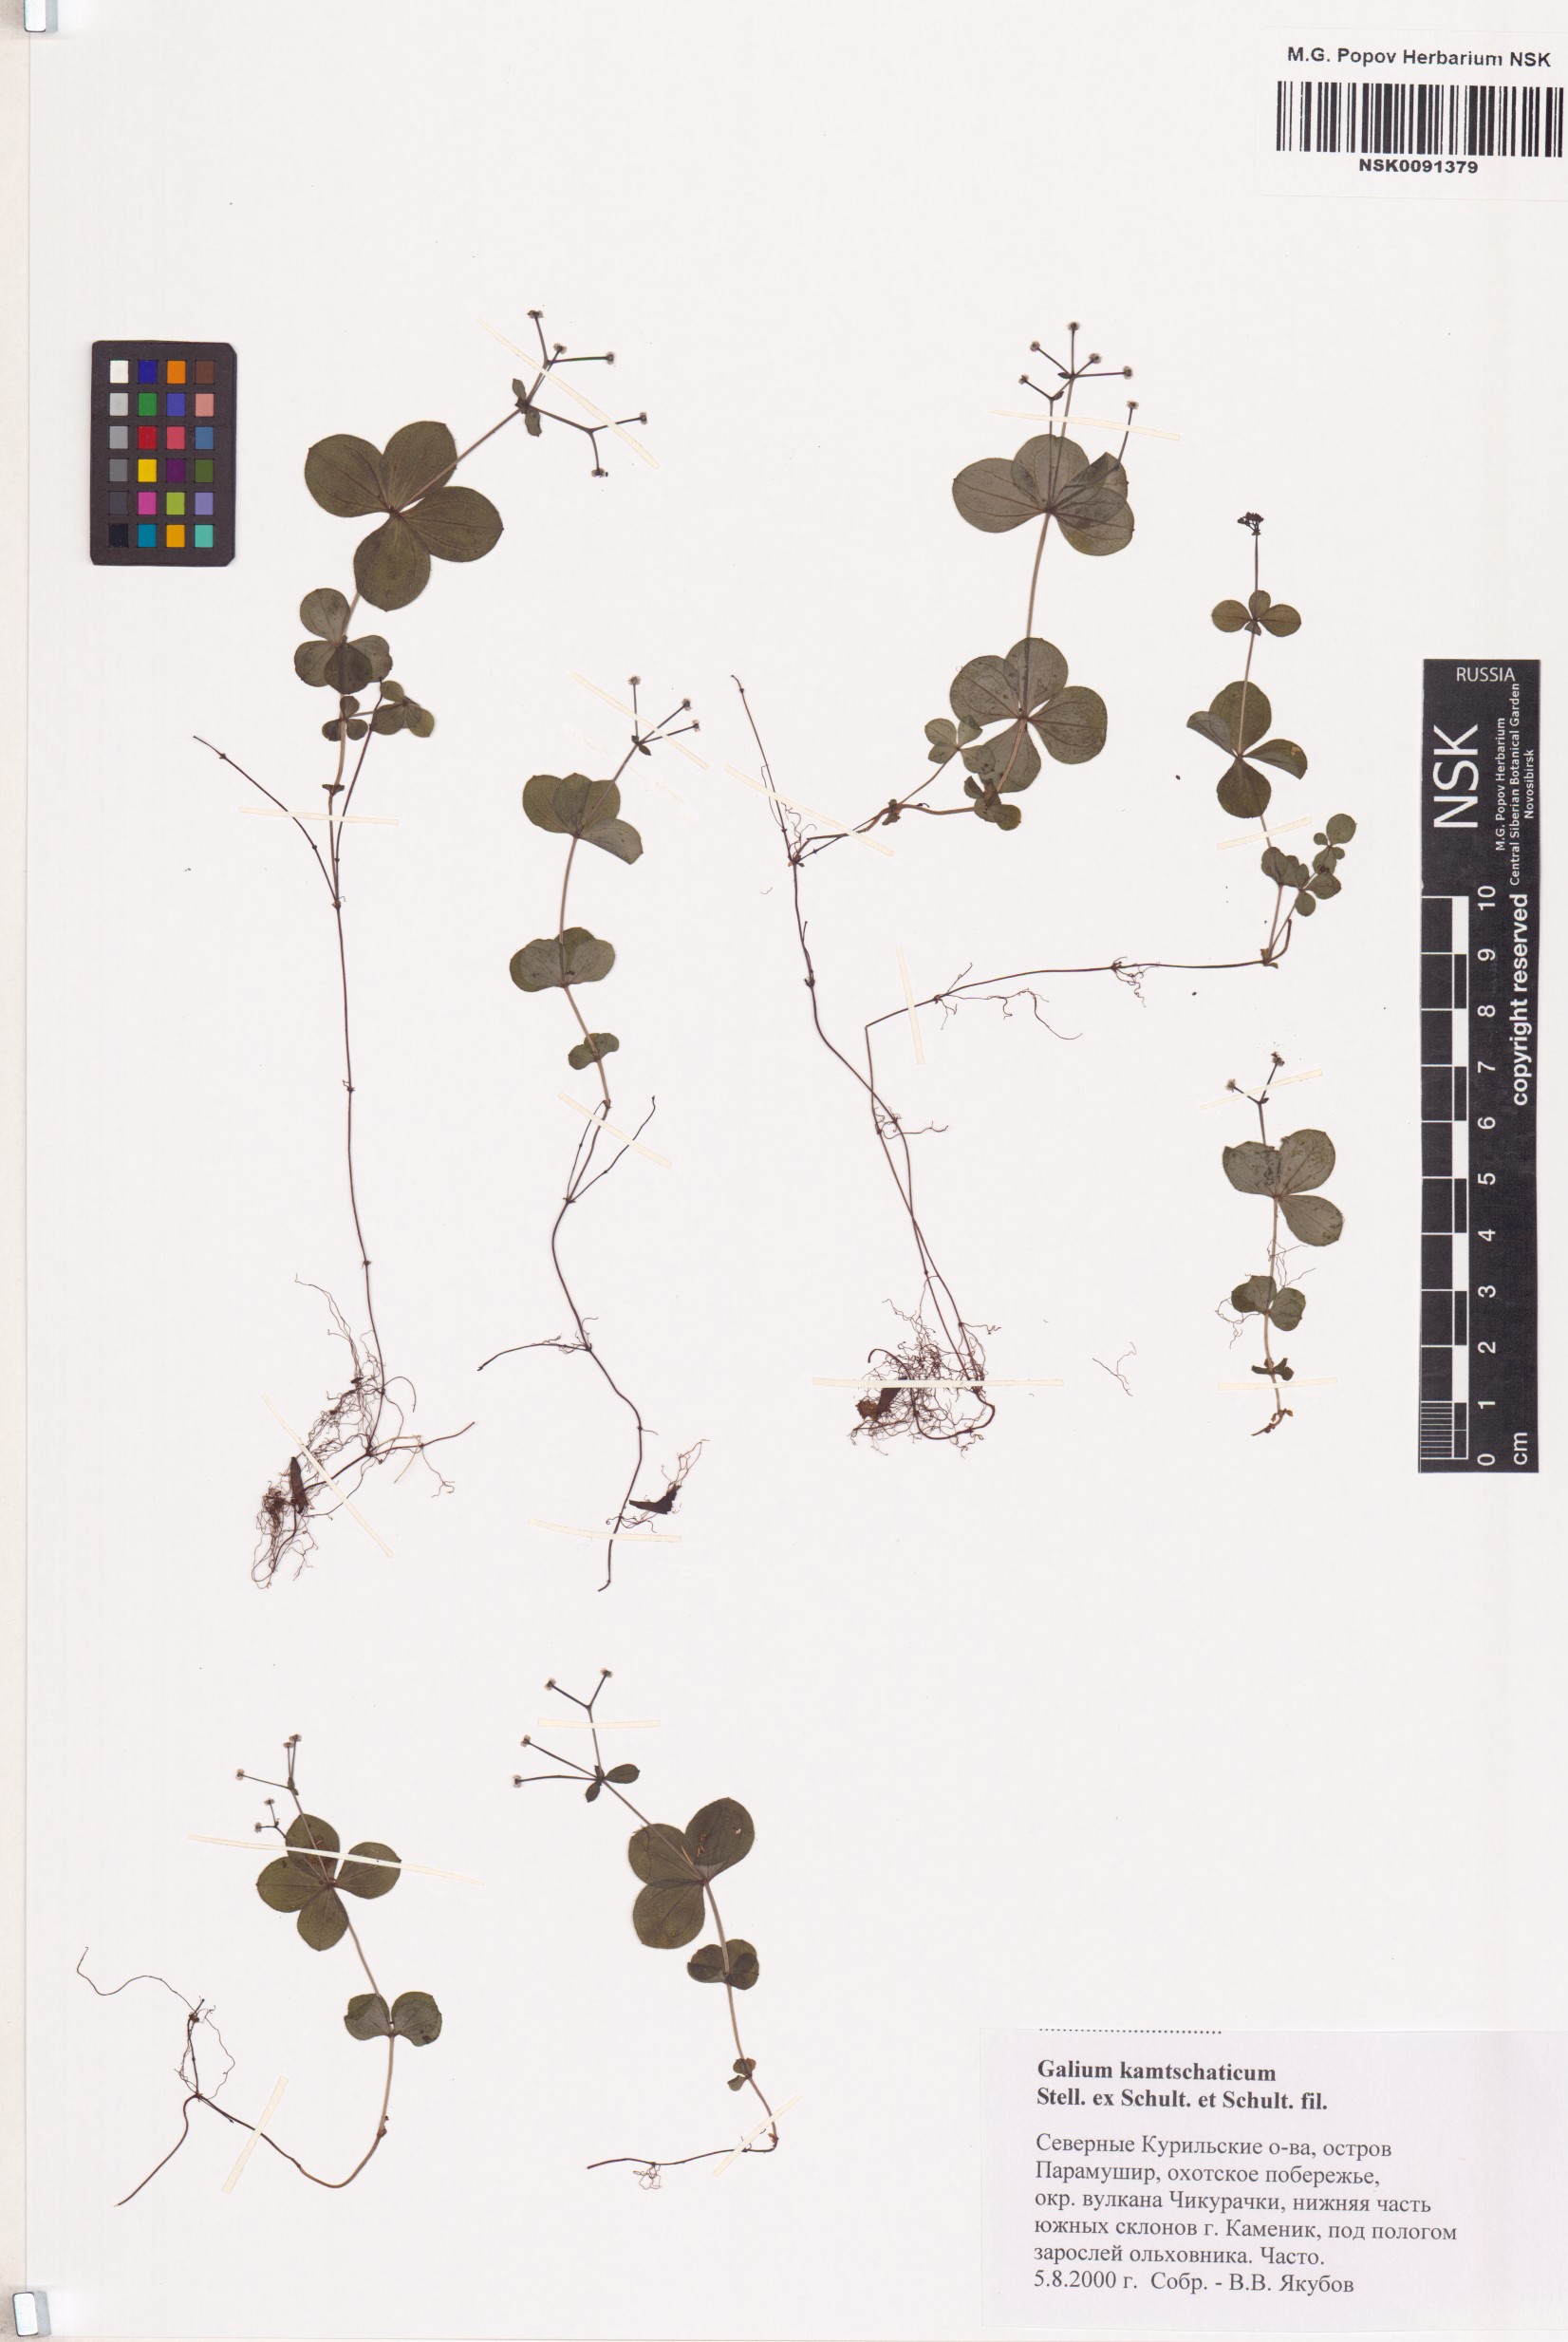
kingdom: Plantae
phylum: Tracheophyta
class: Magnoliopsida
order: Gentianales
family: Rubiaceae
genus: Galium
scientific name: Galium kamtschaticum
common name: Boreal bedstraw
